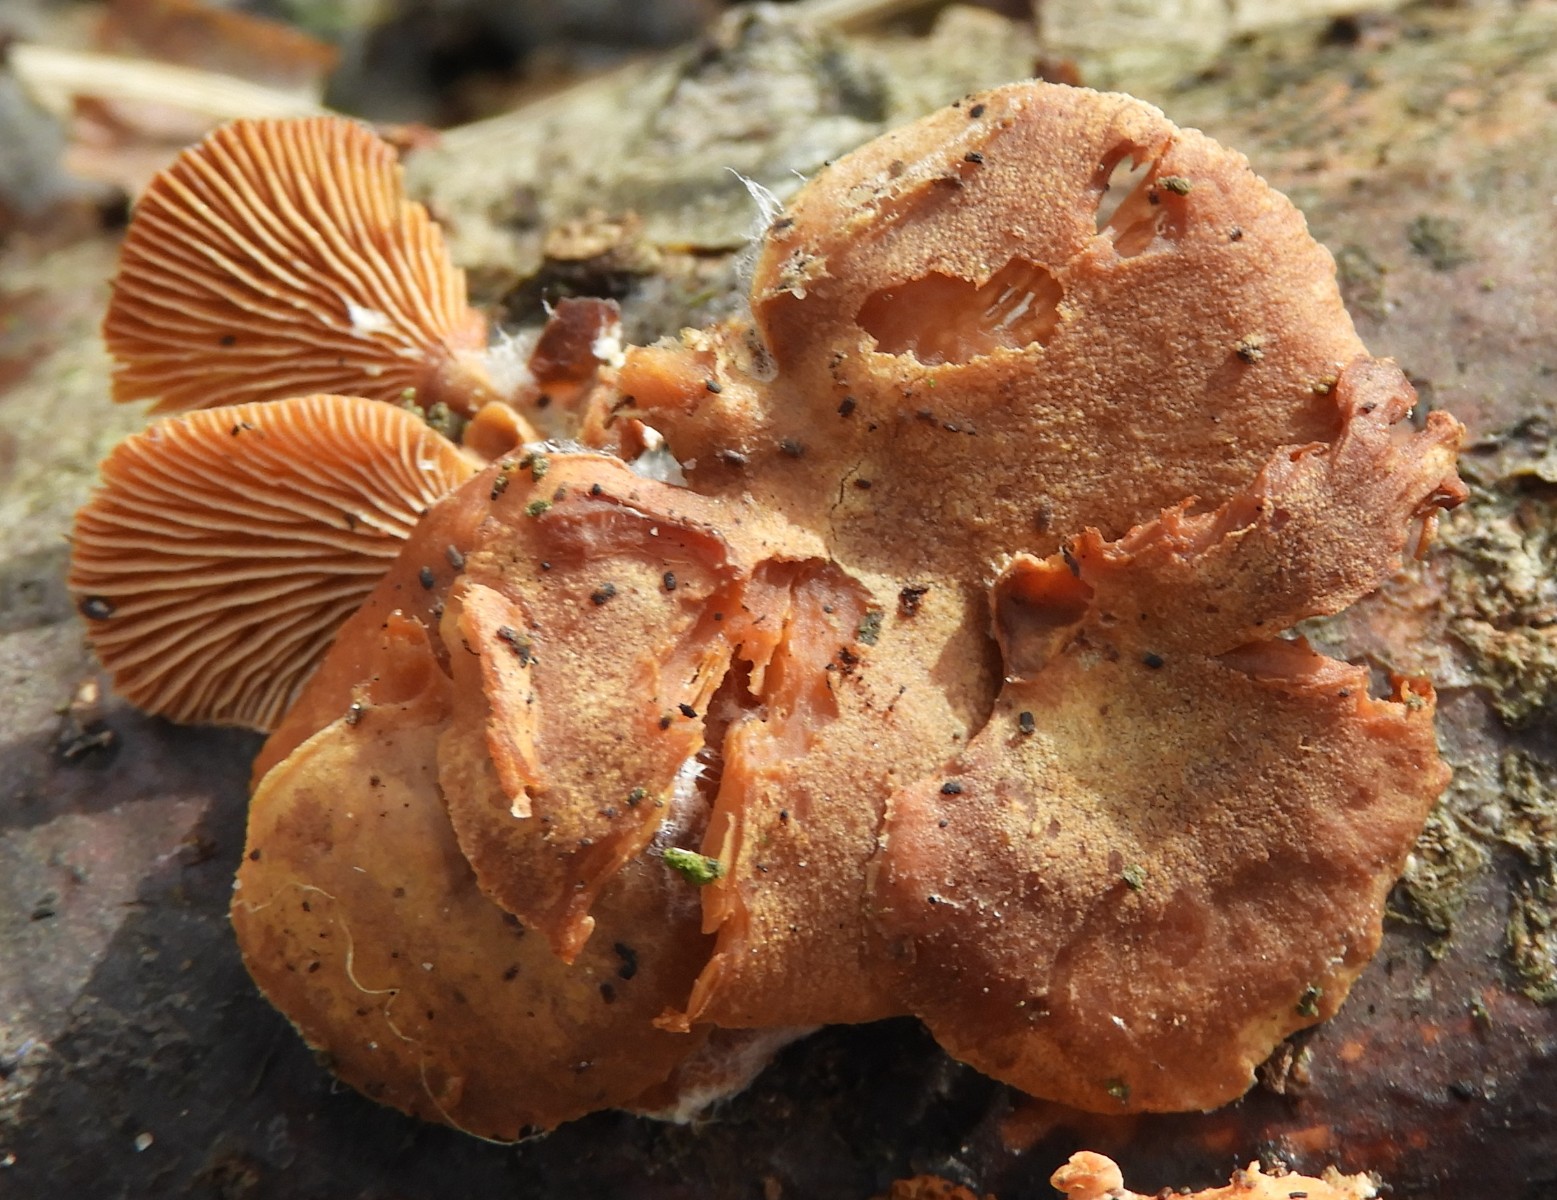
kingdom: Fungi
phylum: Basidiomycota
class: Agaricomycetes
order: Agaricales
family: Strophariaceae
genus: Deconica
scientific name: Deconica horizontalis
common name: ved-stråhat
